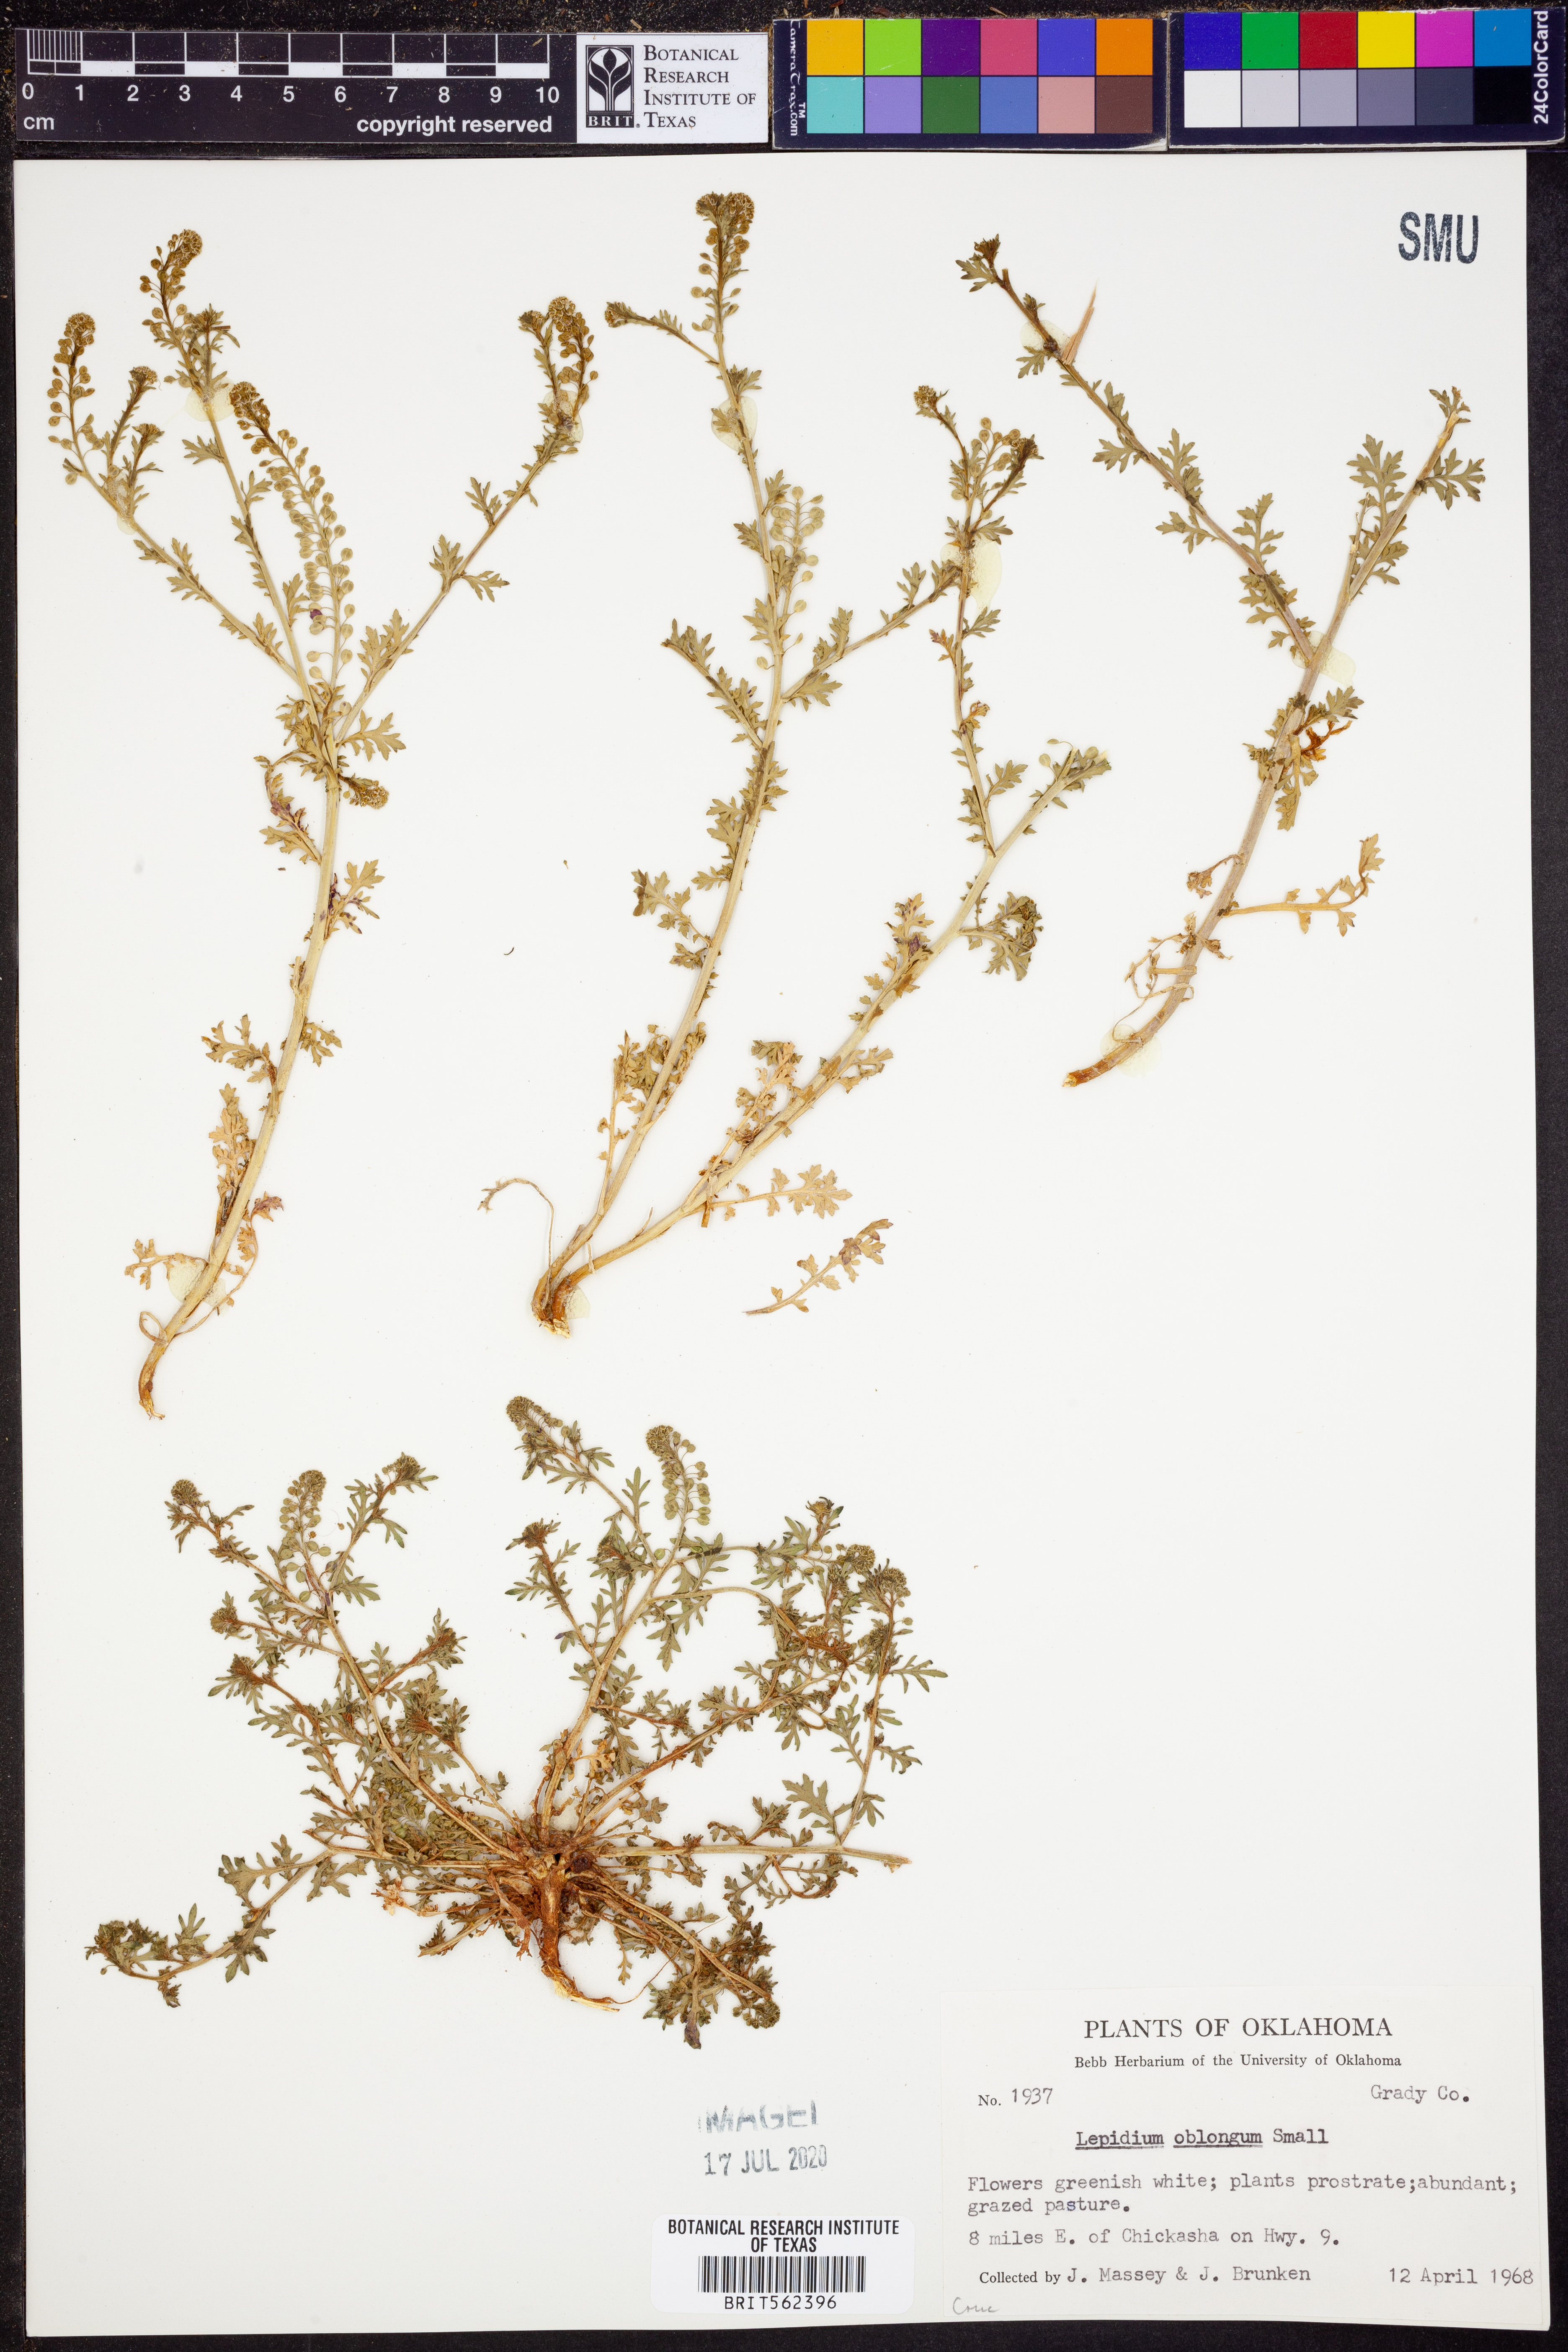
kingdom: Plantae
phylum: Tracheophyta
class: Magnoliopsida
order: Brassicales
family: Brassicaceae
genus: Lepidium
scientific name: Lepidium oblongum
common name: Veiny pepperweed
